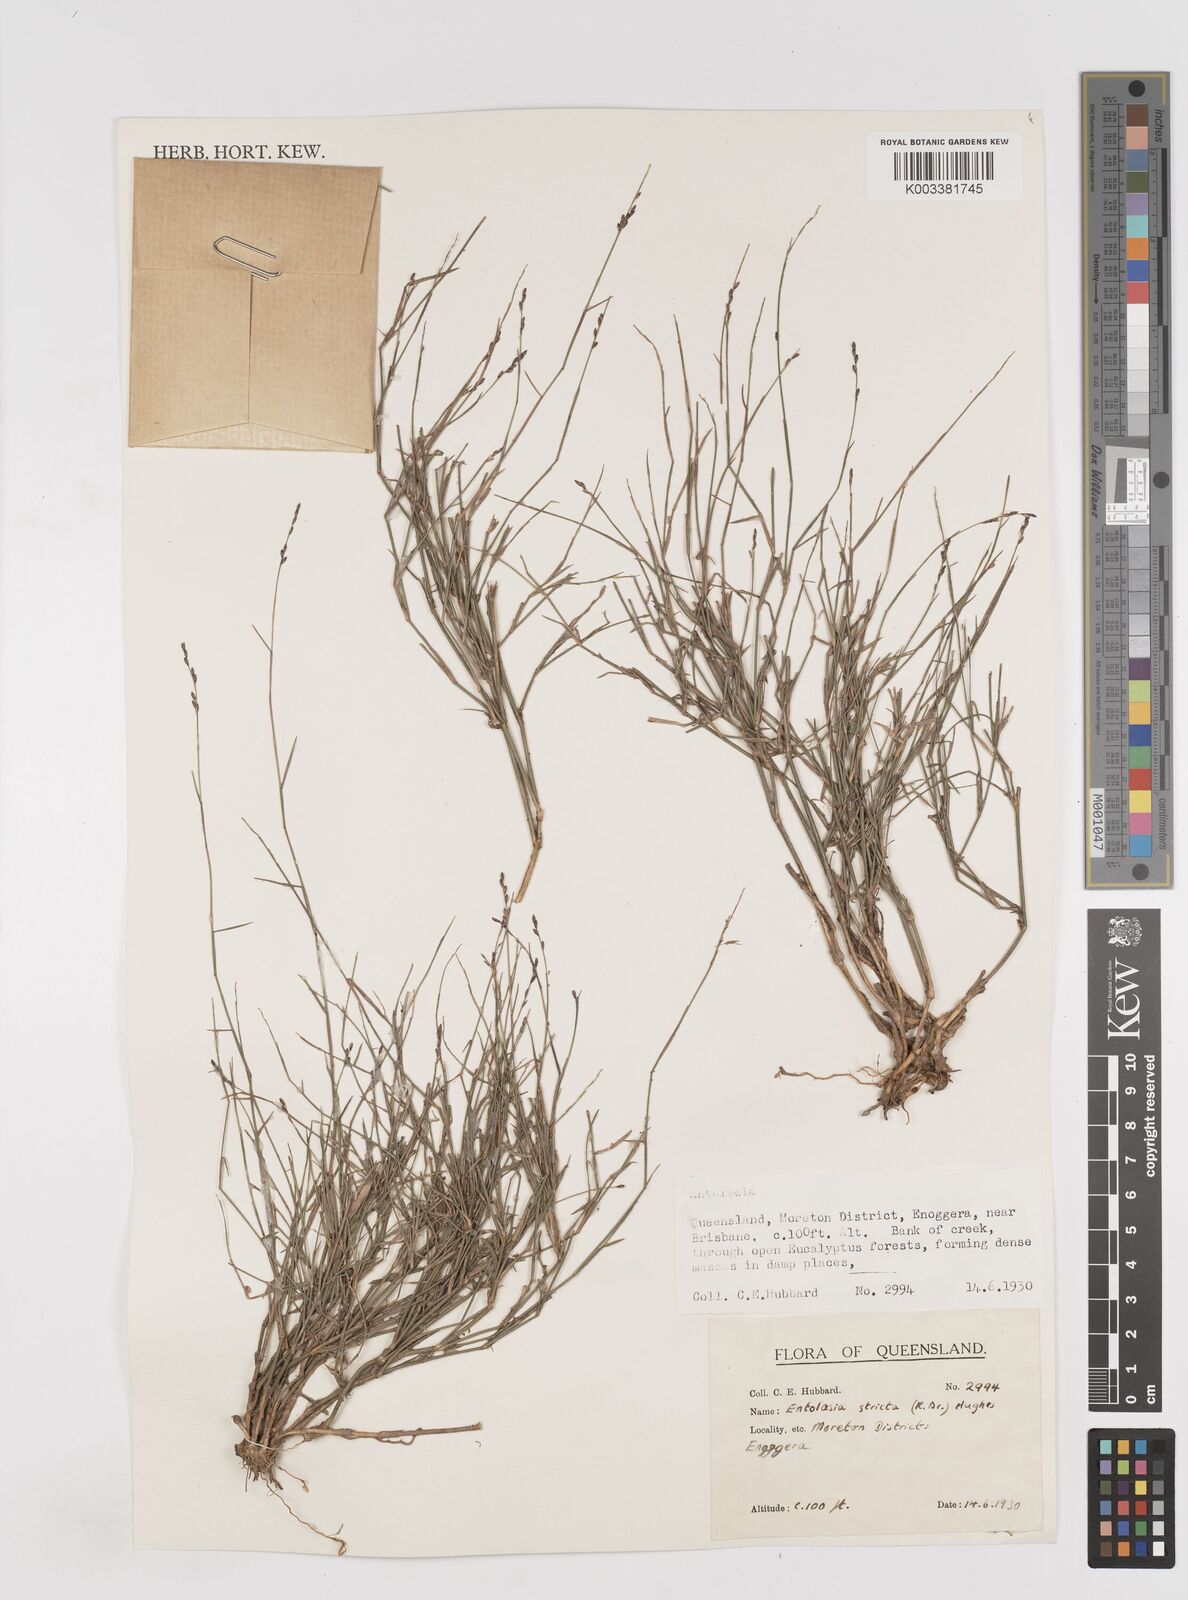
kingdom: Plantae
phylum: Tracheophyta
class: Liliopsida
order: Poales
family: Poaceae
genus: Entolasia
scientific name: Entolasia stricta
